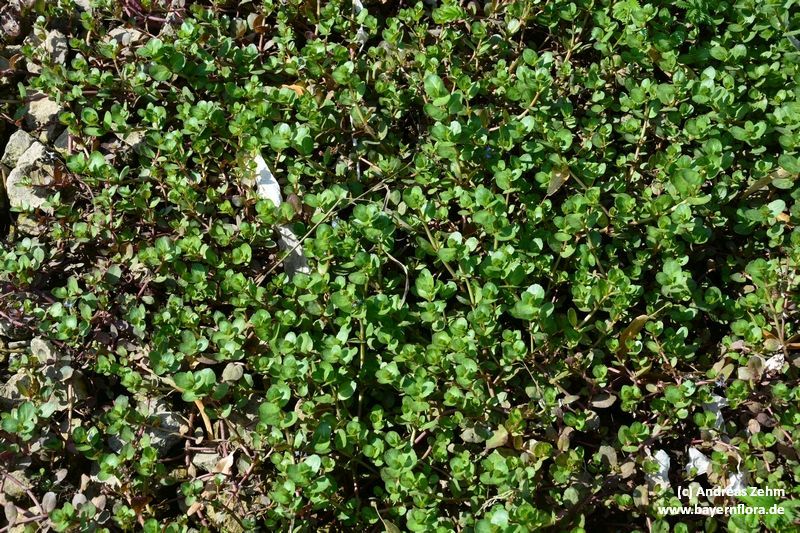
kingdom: Plantae
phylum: Tracheophyta
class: Magnoliopsida
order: Lamiales
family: Plantaginaceae
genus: Veronica
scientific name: Veronica beccabunga
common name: Brooklime
